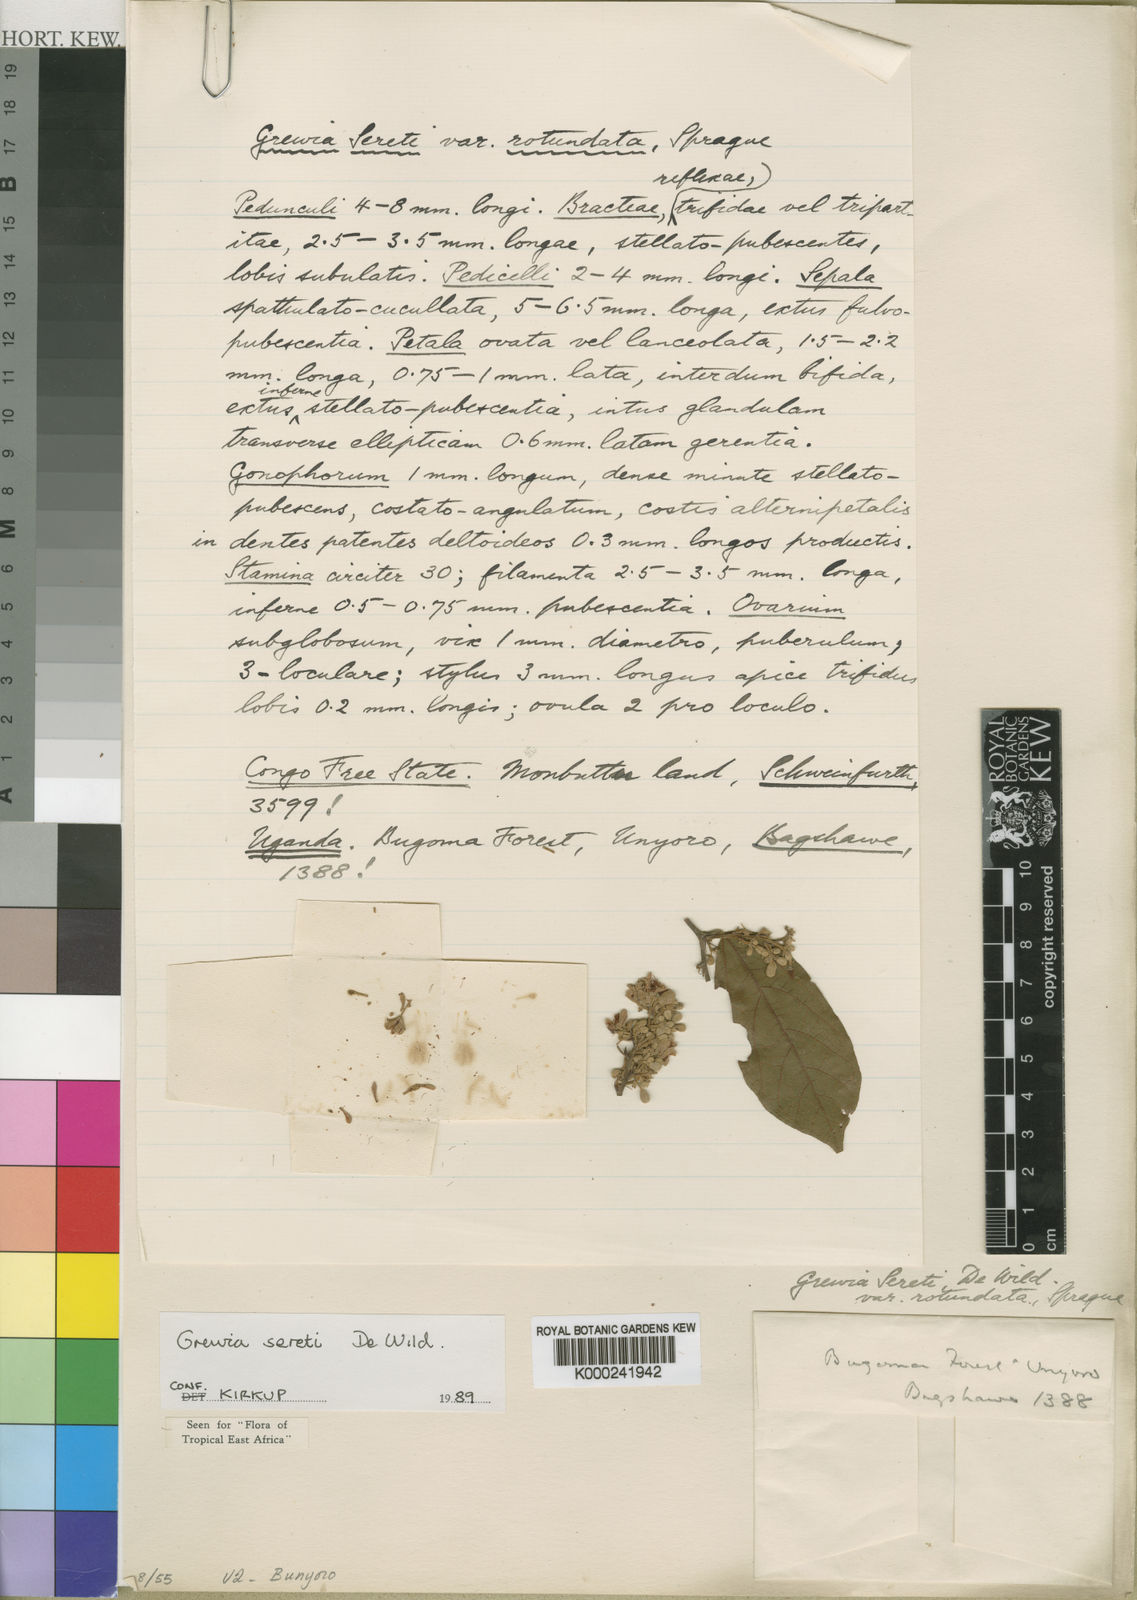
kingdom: Plantae
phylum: Tracheophyta
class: Magnoliopsida
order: Malvales
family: Malvaceae
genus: Microcos
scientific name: Microcos seretii
